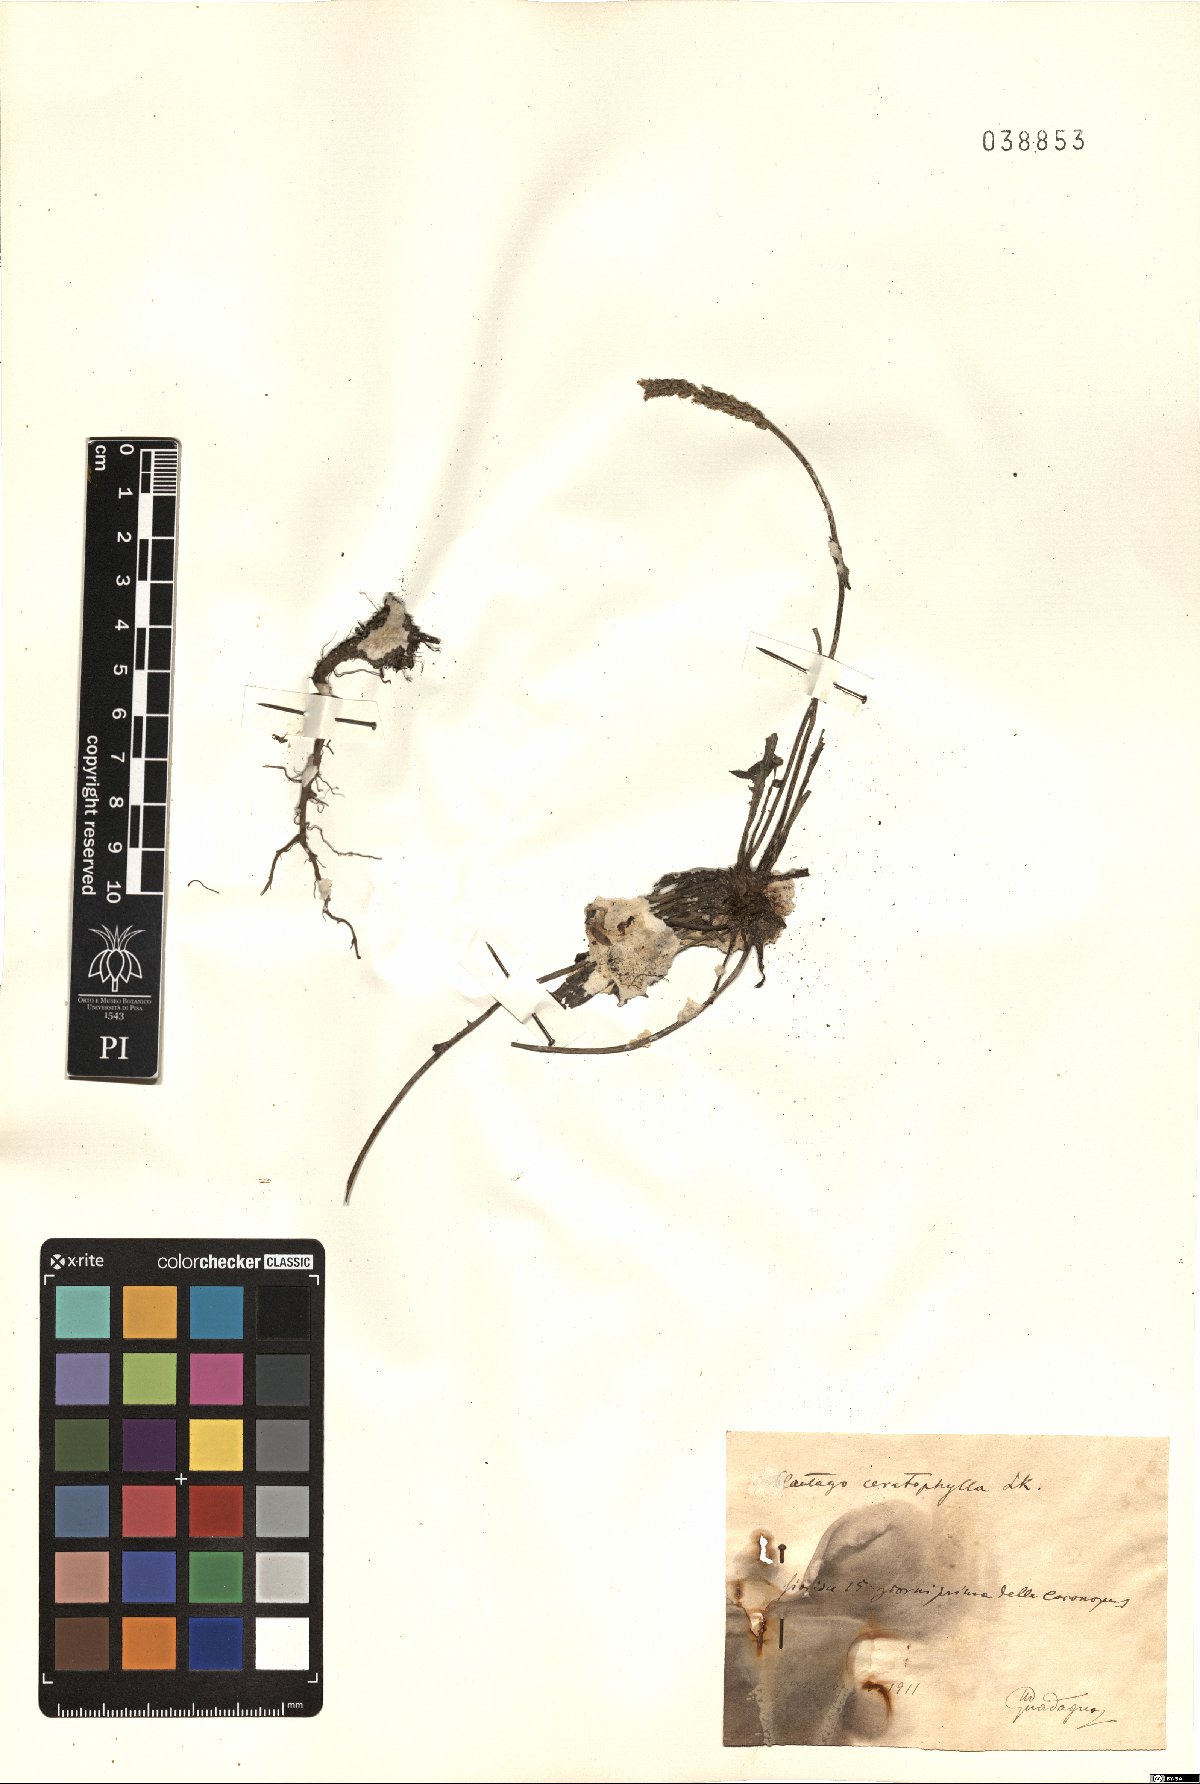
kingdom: Plantae
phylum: Tracheophyta
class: Magnoliopsida
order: Lamiales
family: Plantaginaceae
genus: Plantago
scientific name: Plantago coronopus
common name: Buck's-horn plantain
